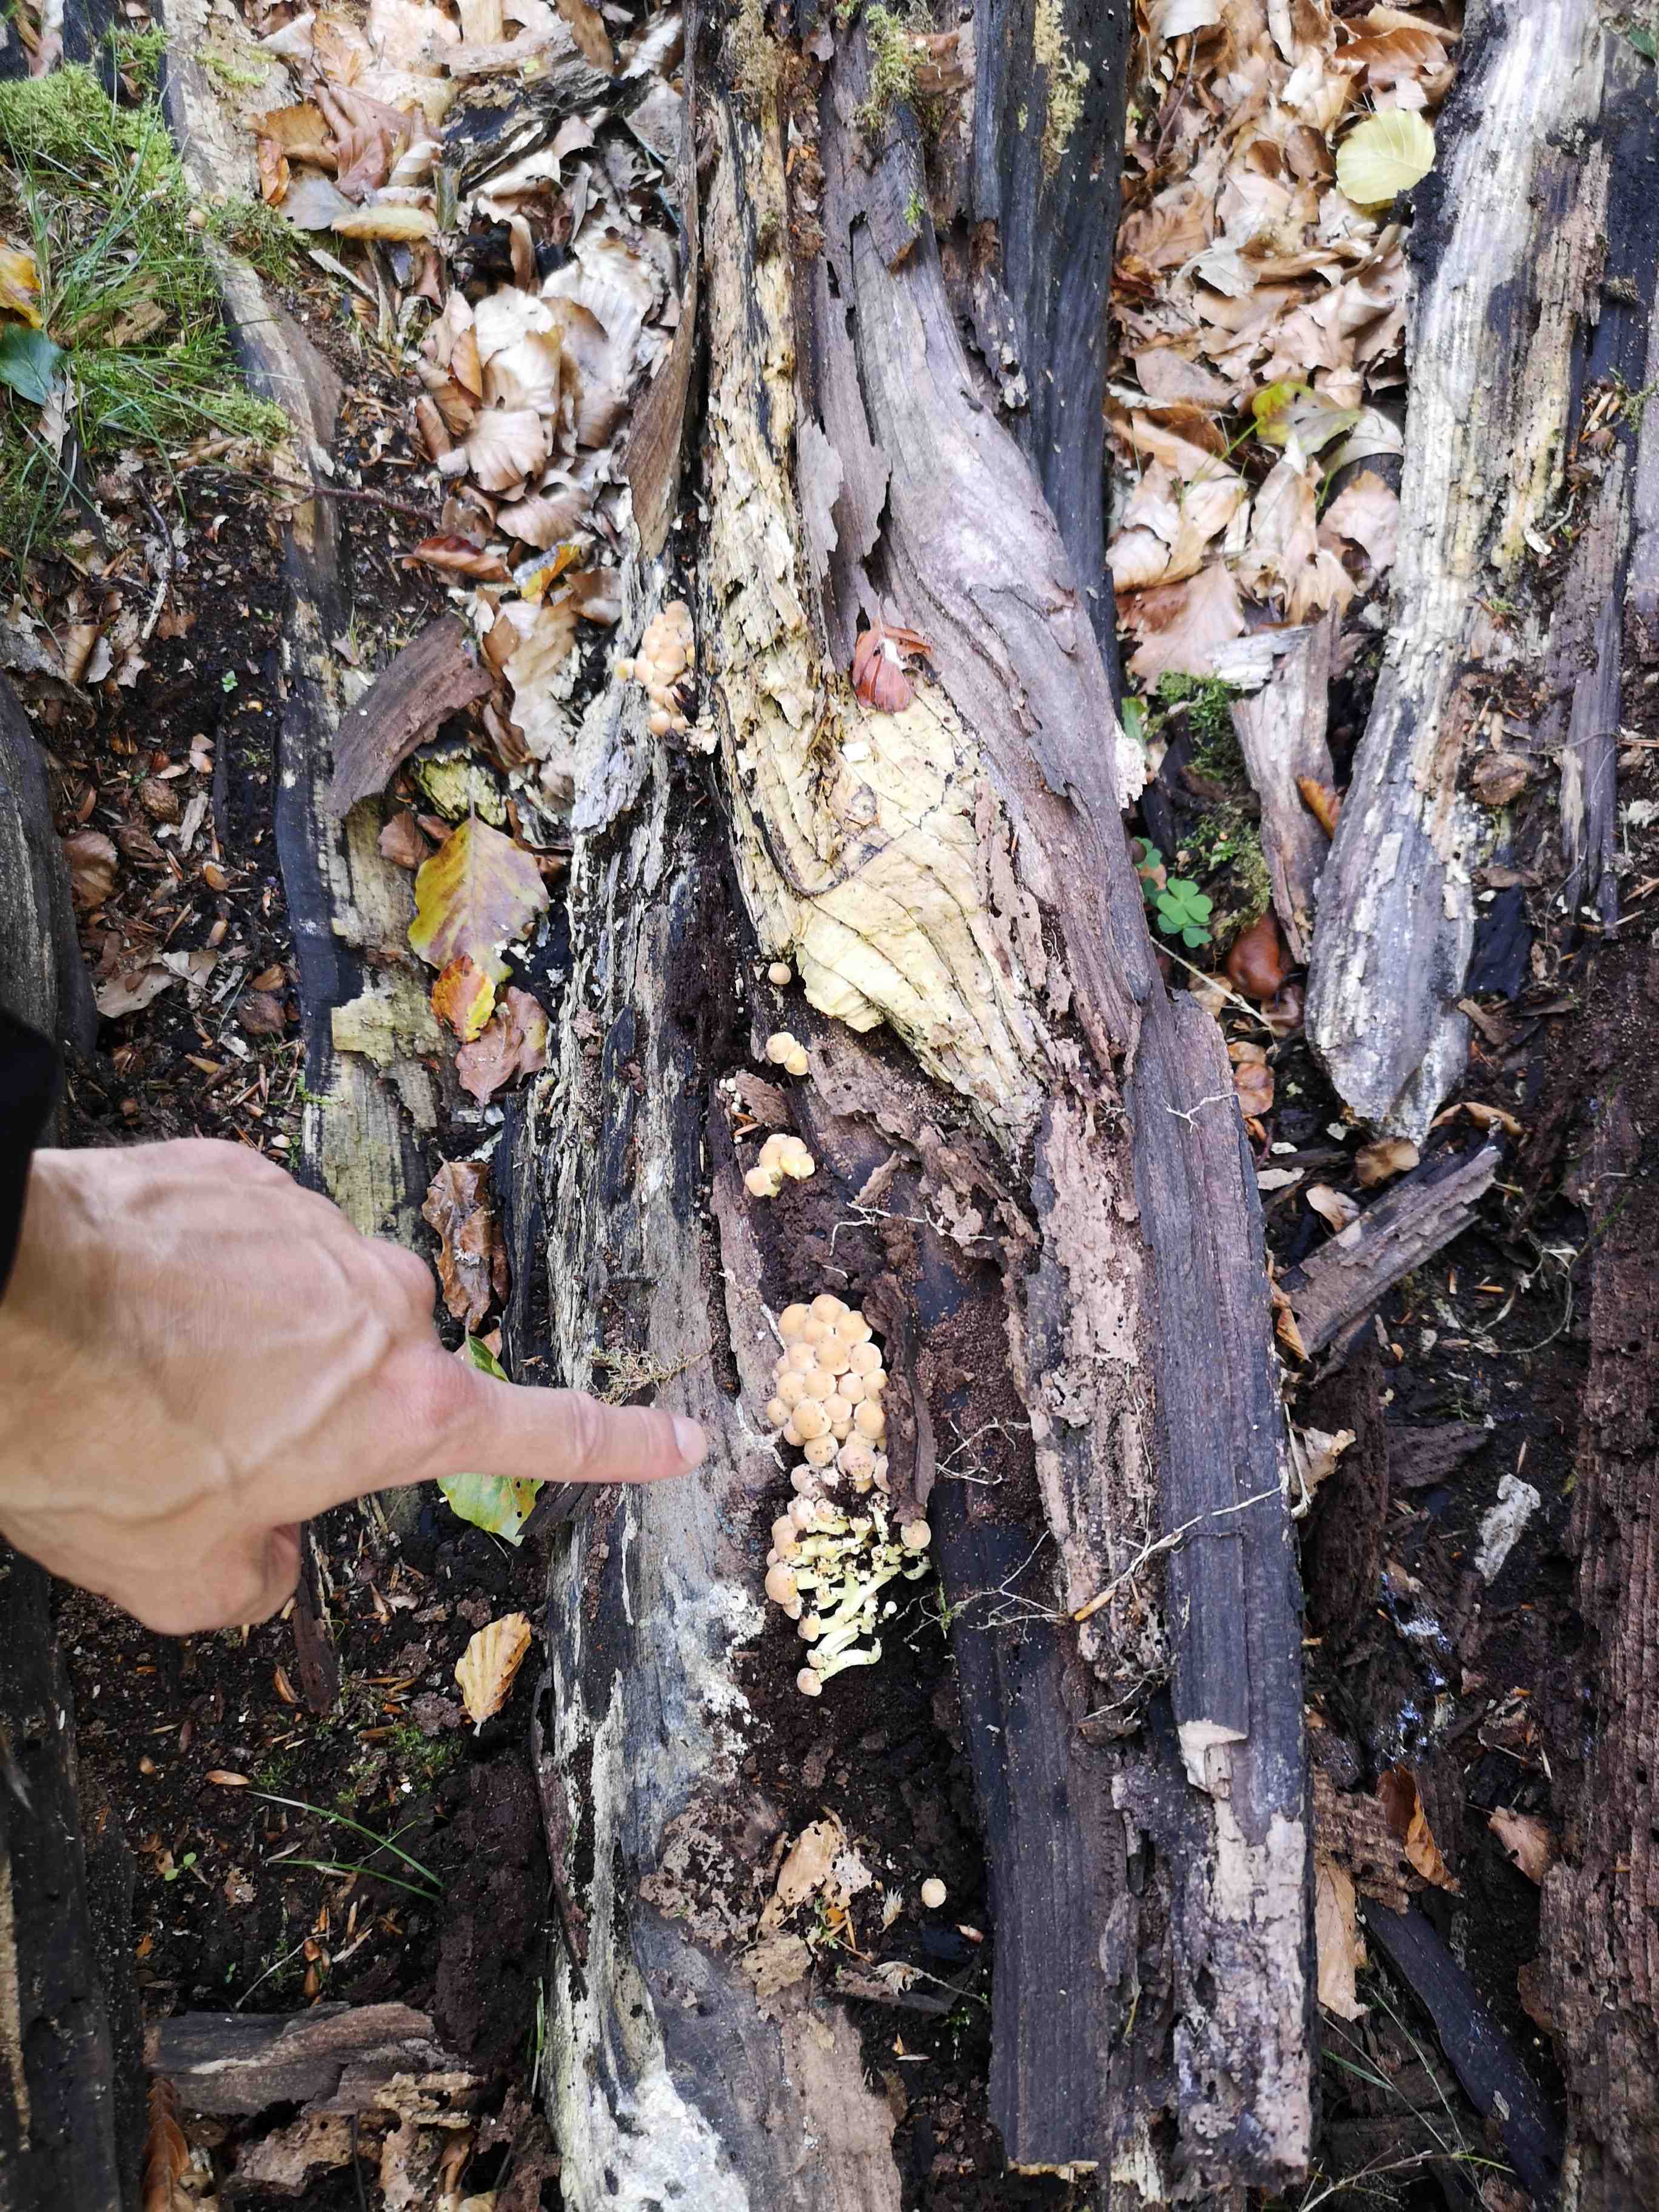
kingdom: Fungi
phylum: Basidiomycota
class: Agaricomycetes
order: Agaricales
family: Strophariaceae
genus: Hypholoma
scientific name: Hypholoma fasciculare
